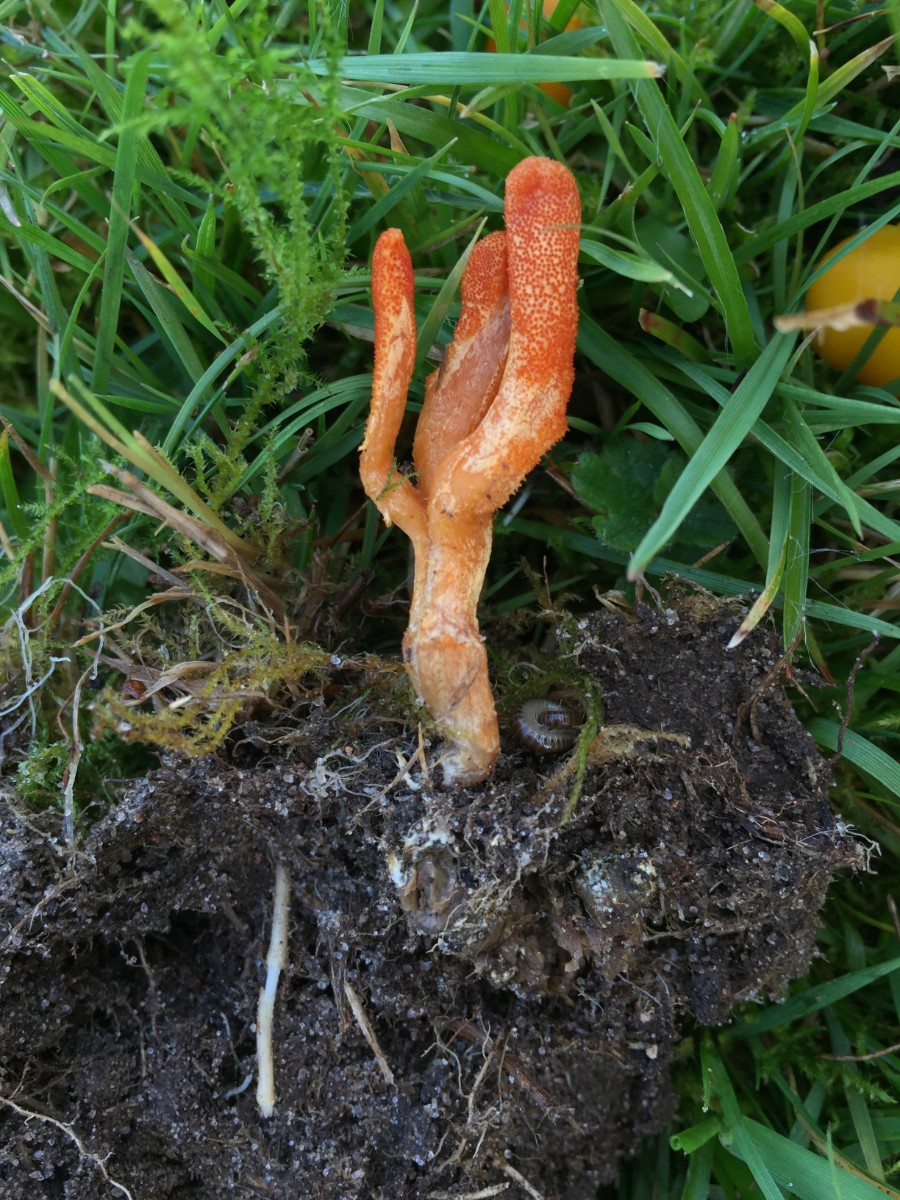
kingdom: Fungi
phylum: Ascomycota
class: Sordariomycetes
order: Hypocreales
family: Cordycipitaceae
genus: Cordyceps
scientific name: Cordyceps militaris
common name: puppe-snyltekølle
